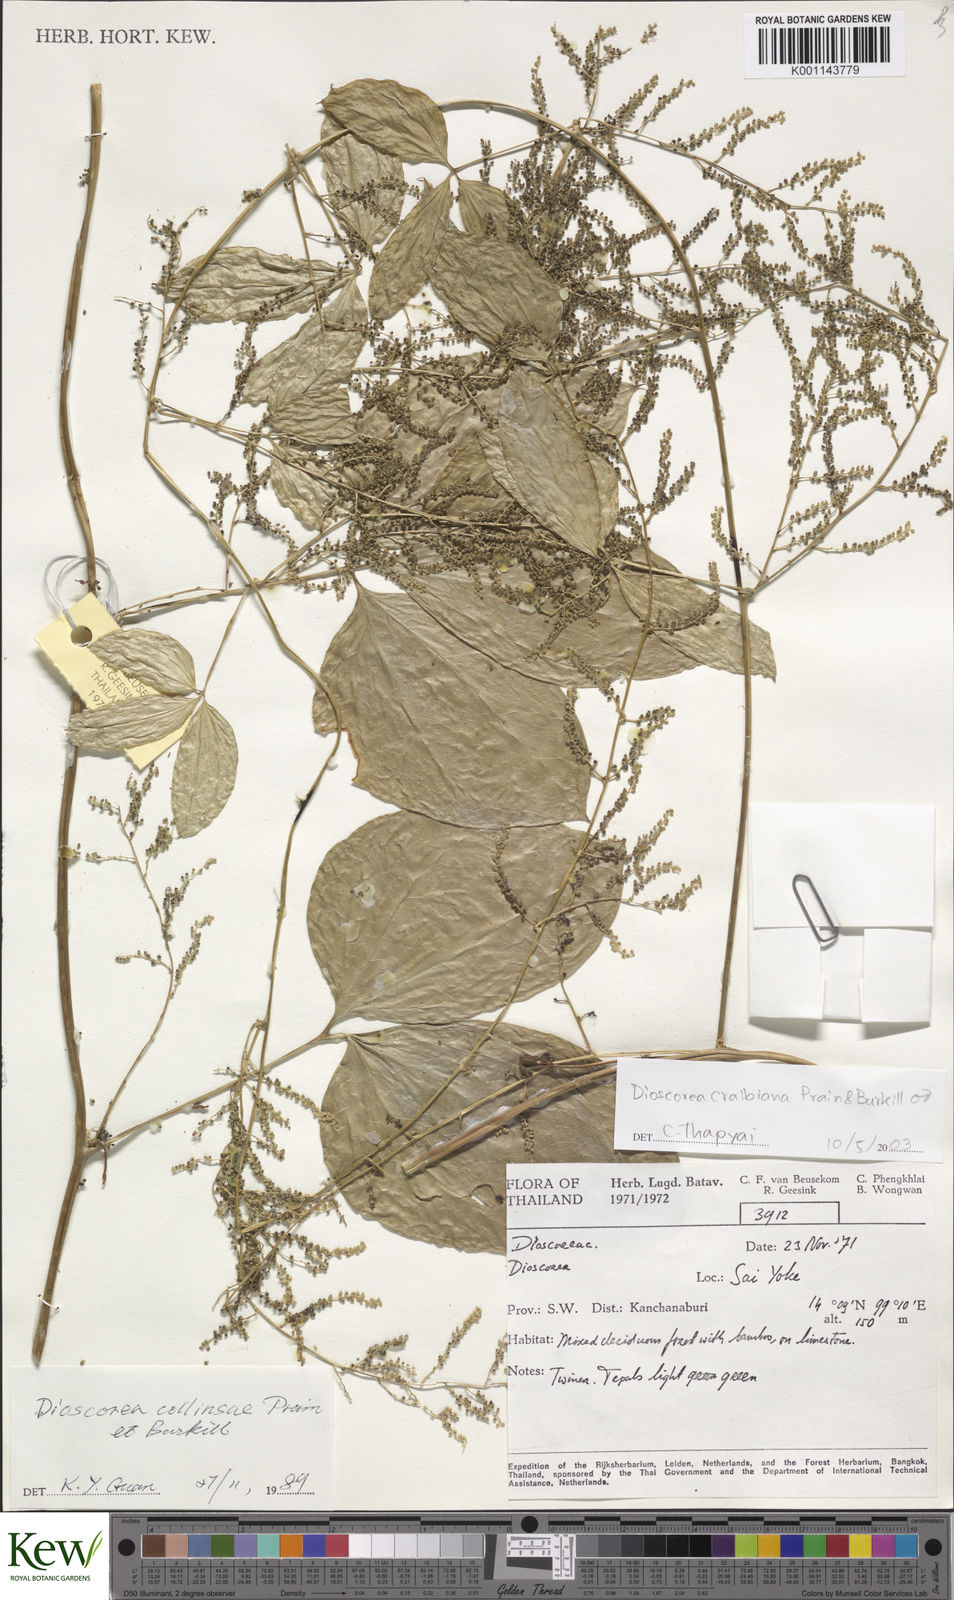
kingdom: Plantae
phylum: Tracheophyta
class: Liliopsida
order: Dioscoreales
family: Dioscoreaceae
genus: Dioscorea
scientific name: Dioscorea craibiana
